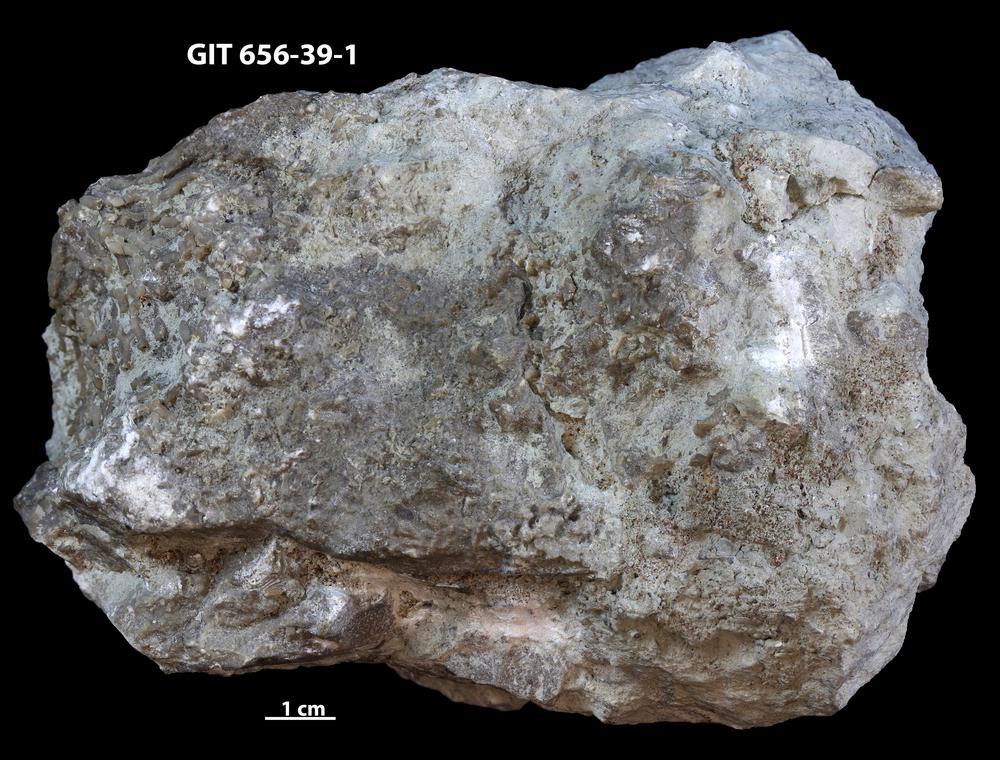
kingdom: Animalia
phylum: Porifera
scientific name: Porifera
